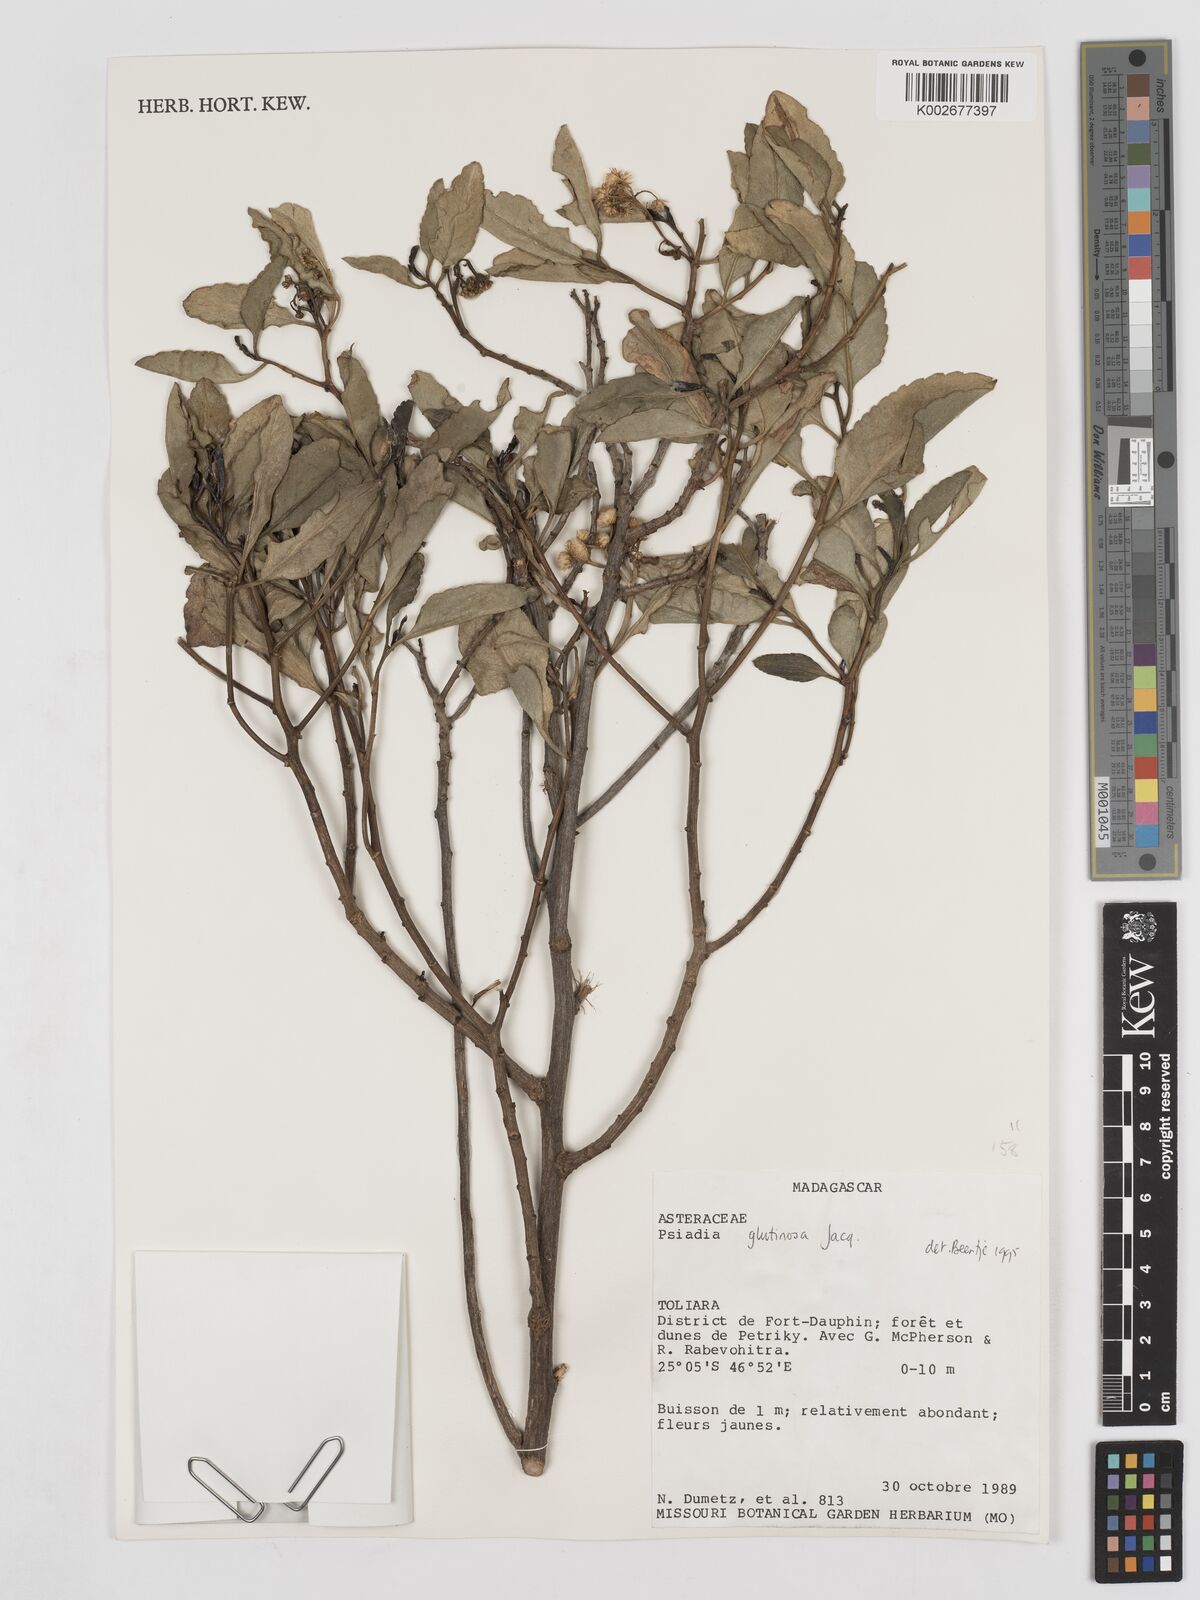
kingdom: Plantae
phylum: Tracheophyta
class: Magnoliopsida
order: Asterales
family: Asteraceae
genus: Psiadia
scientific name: Psiadia glutinosa
